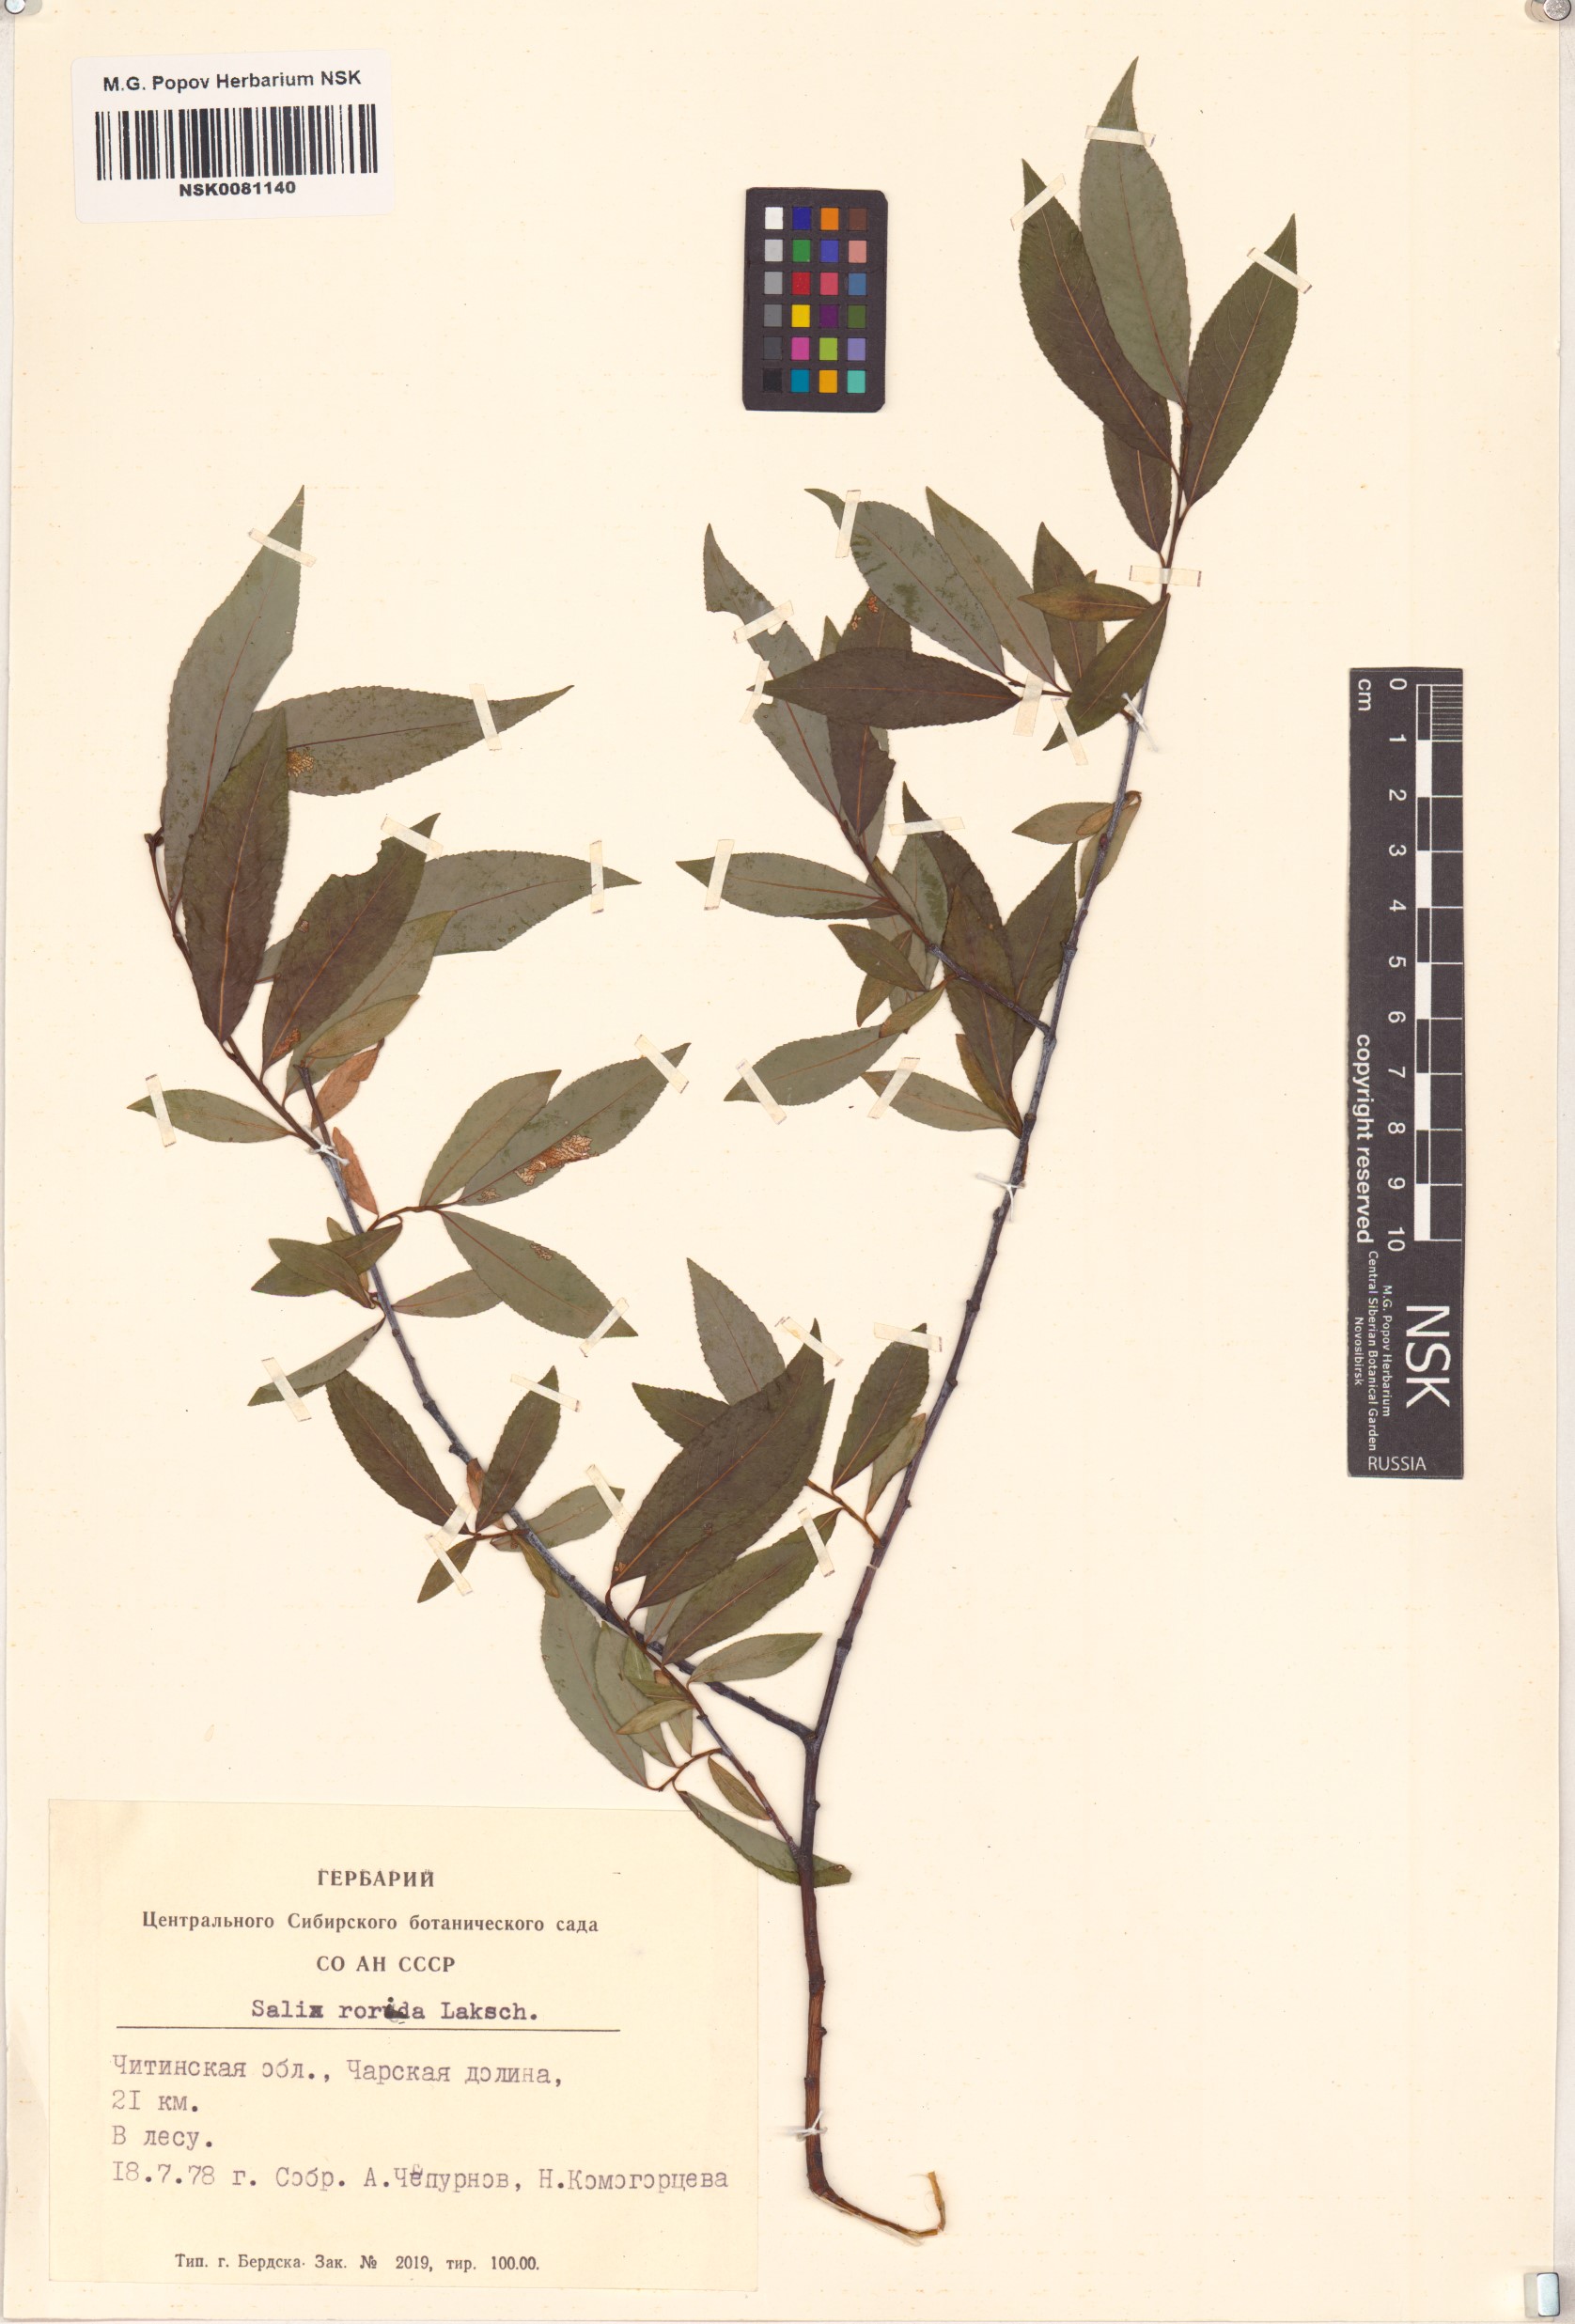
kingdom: Plantae
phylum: Tracheophyta
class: Magnoliopsida
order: Malpighiales
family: Salicaceae
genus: Salix
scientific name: Salix rorida
